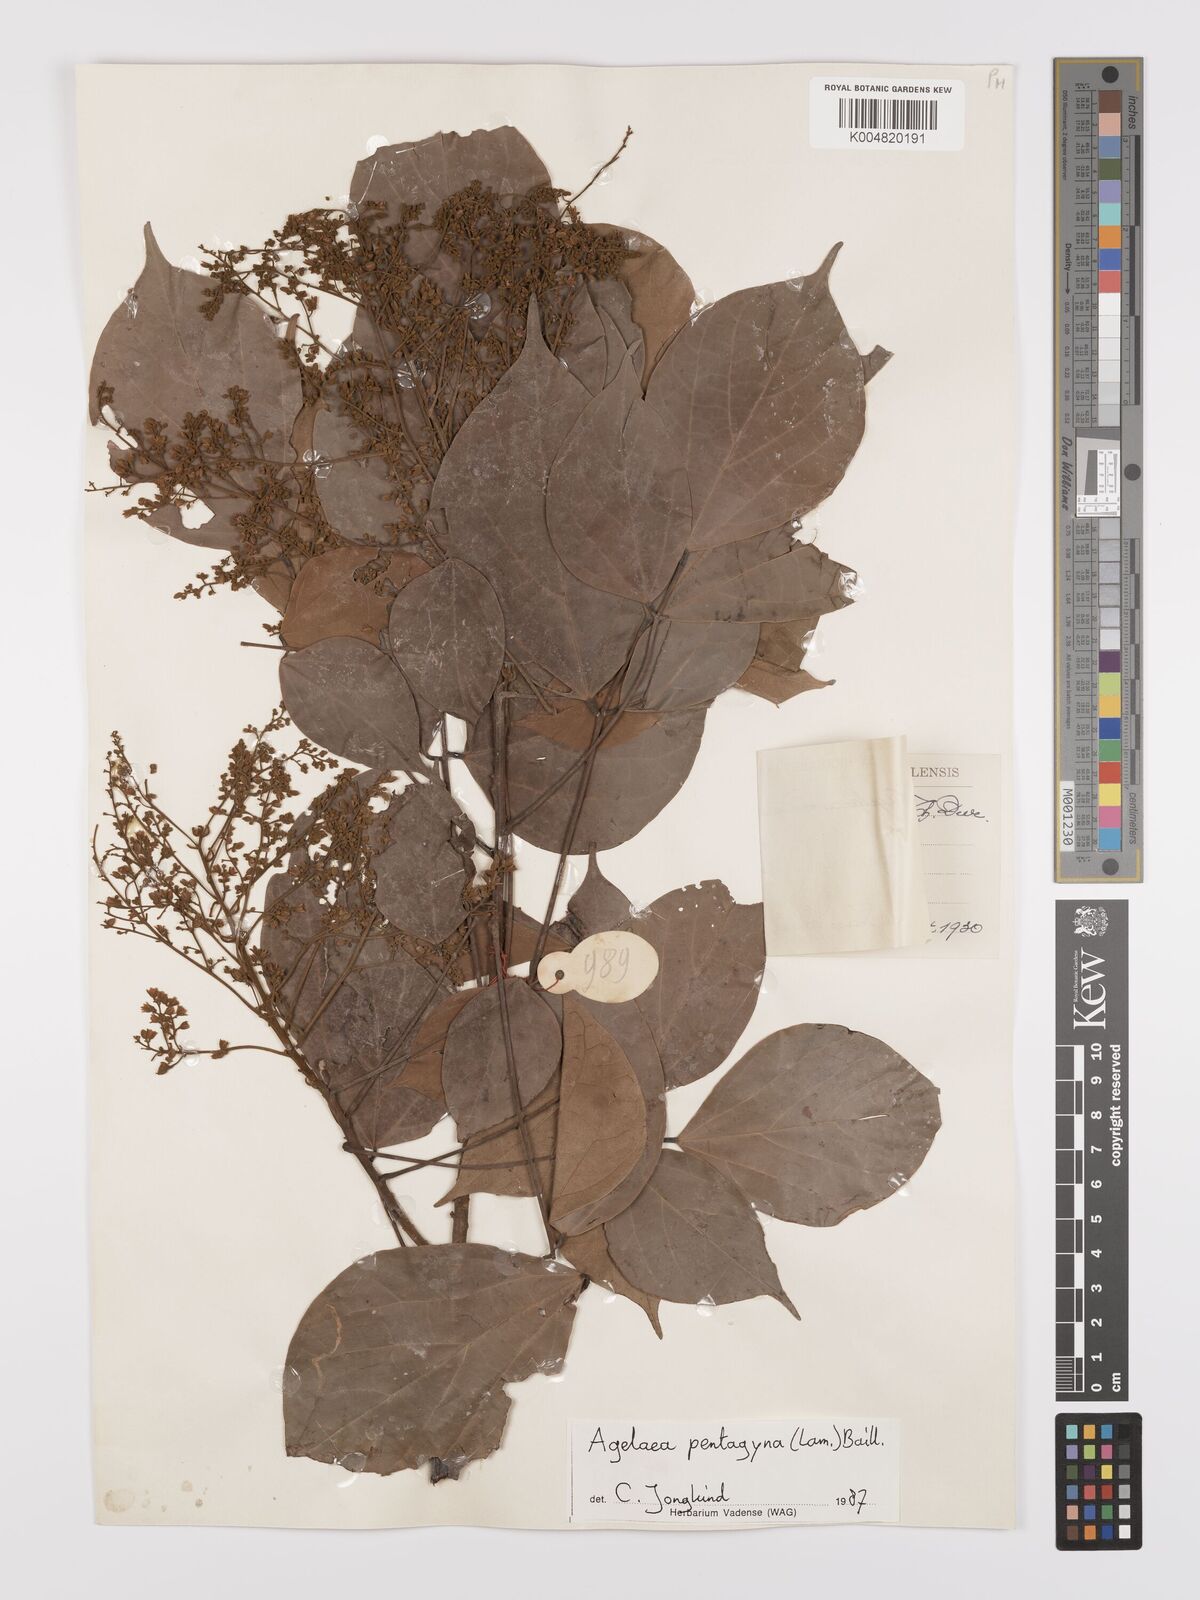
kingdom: Plantae
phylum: Tracheophyta
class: Magnoliopsida
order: Oxalidales
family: Connaraceae
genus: Agelaea
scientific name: Agelaea pentagyna
